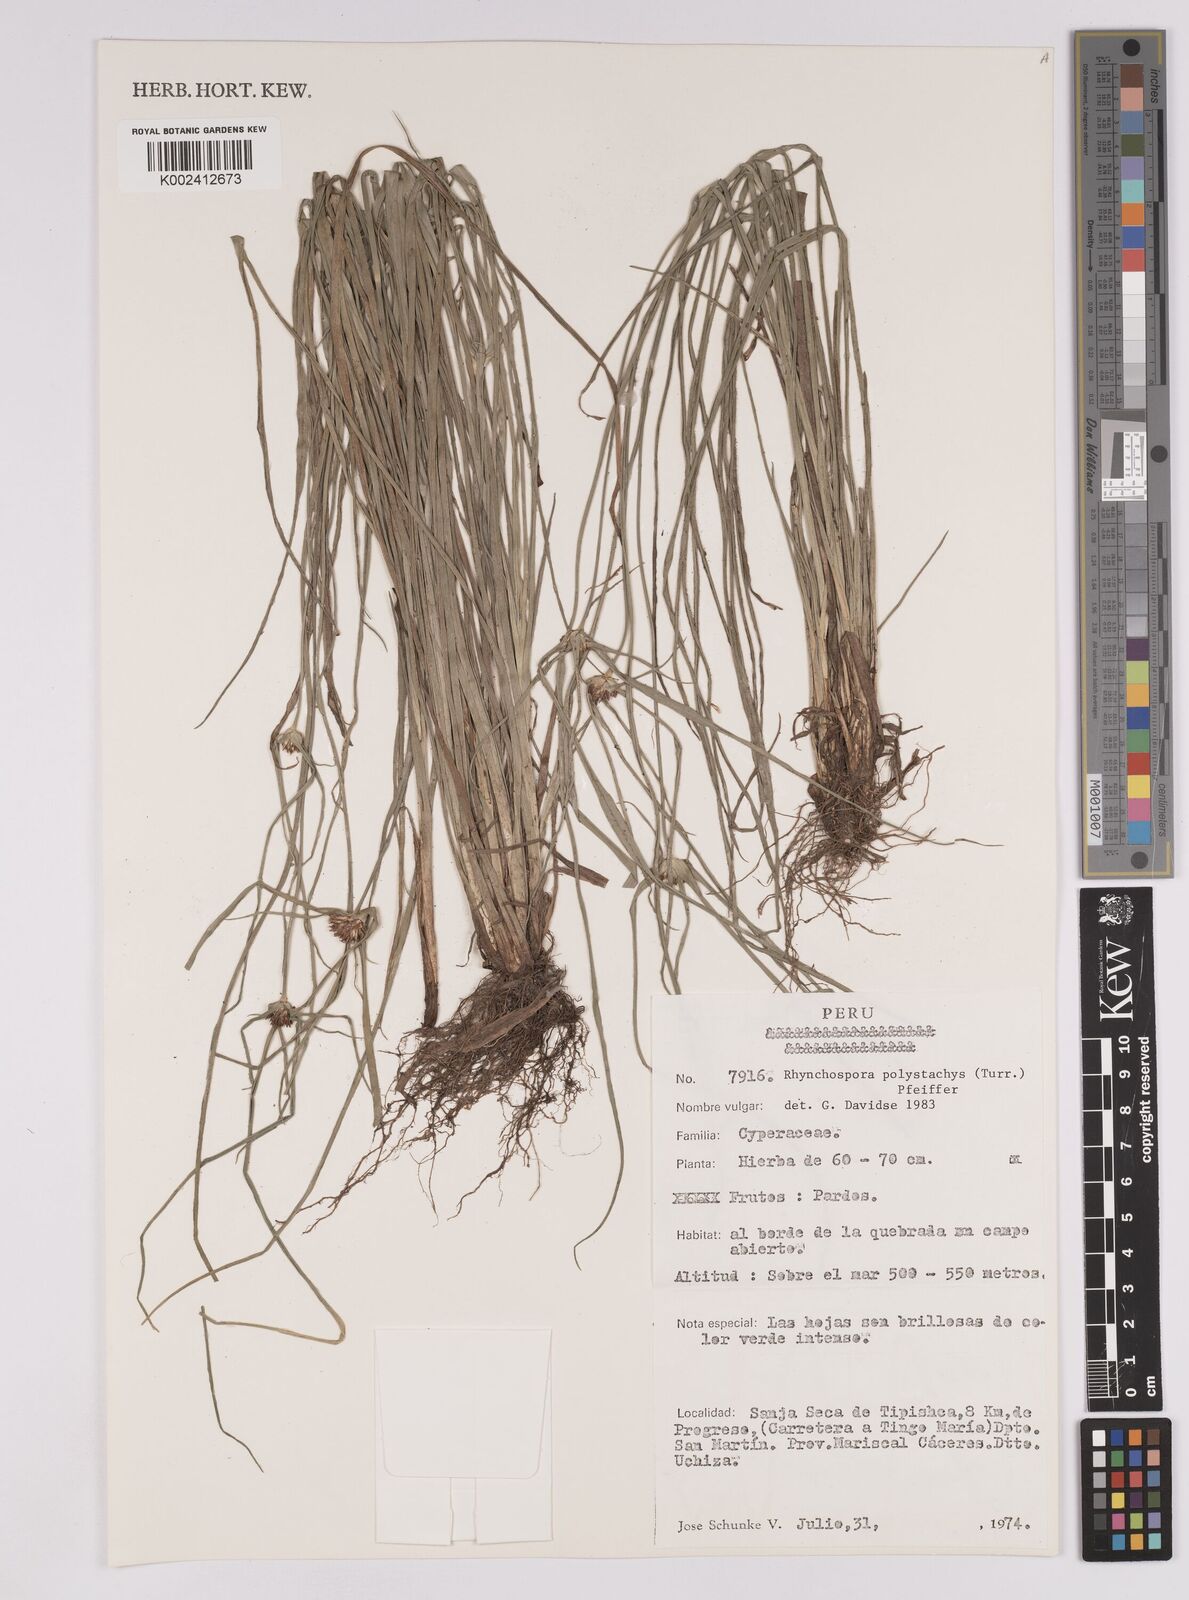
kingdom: Plantae
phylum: Tracheophyta
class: Liliopsida
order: Poales
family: Cyperaceae
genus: Rhynchospora
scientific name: Rhynchospora polystachys
